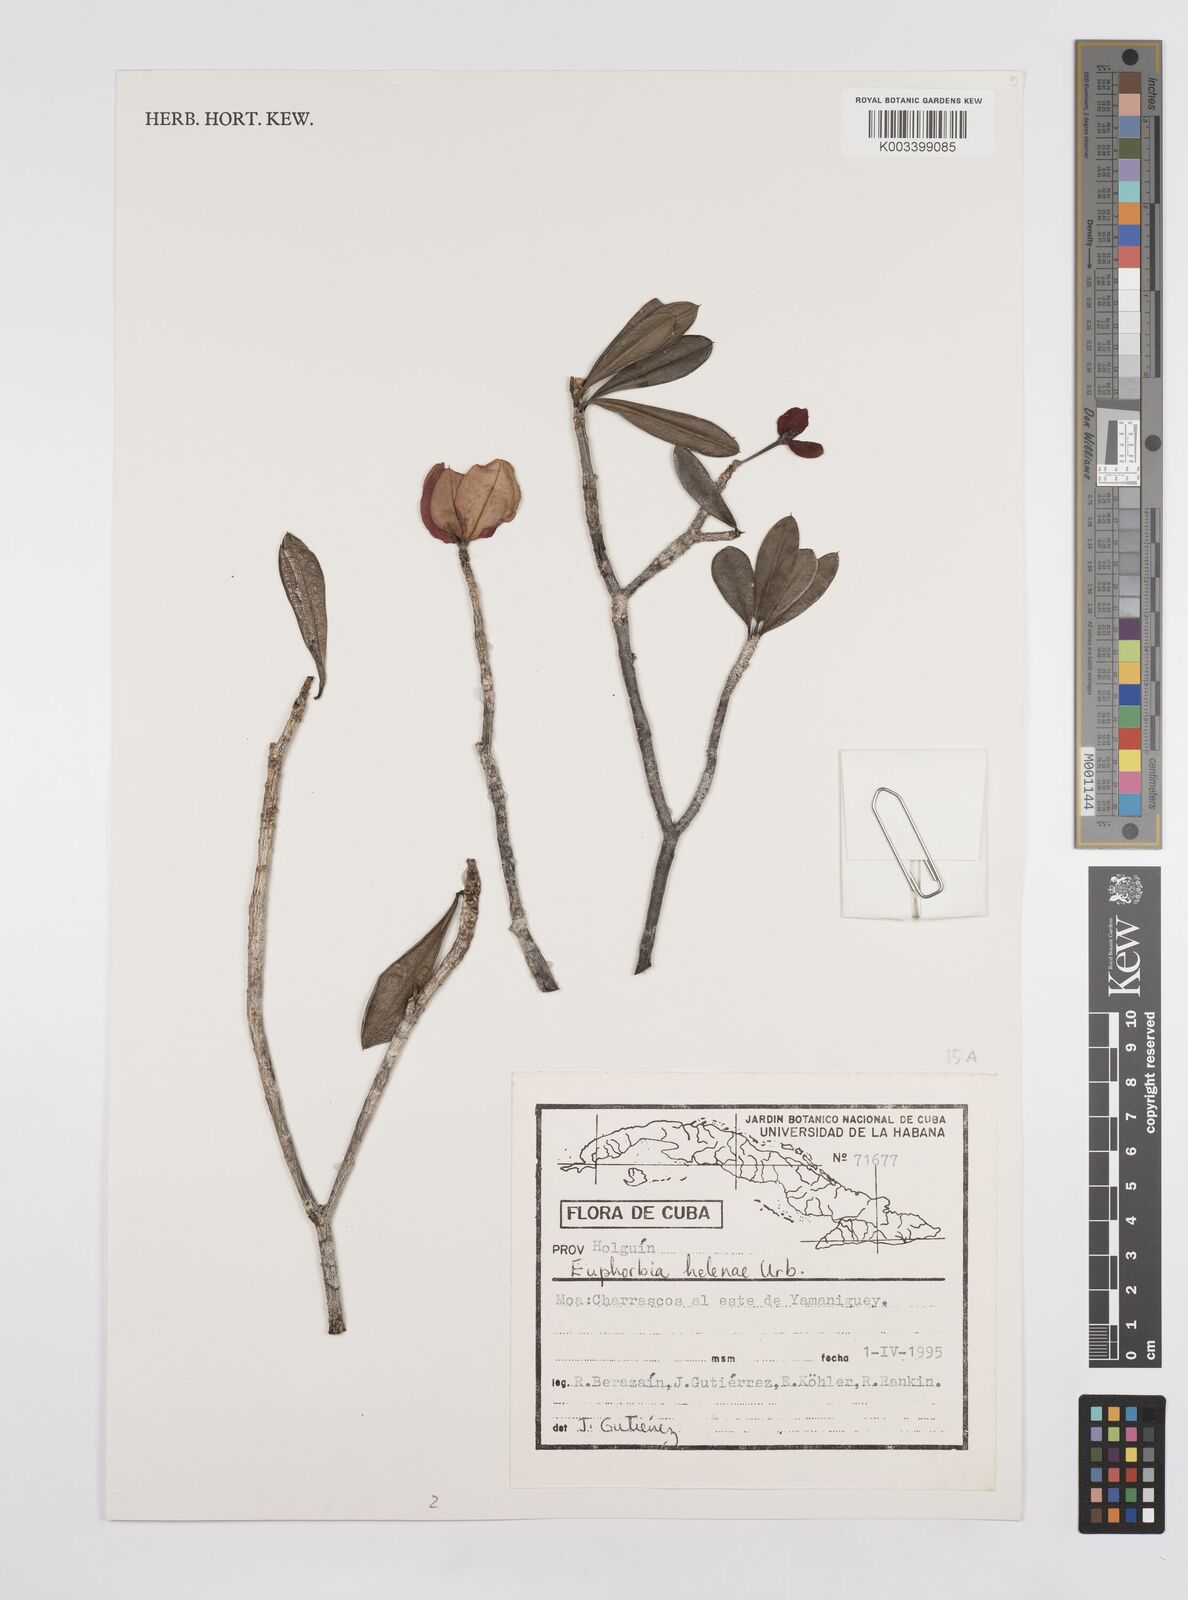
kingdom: Plantae
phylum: Tracheophyta
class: Magnoliopsida
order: Malpighiales
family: Euphorbiaceae
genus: Euphorbia
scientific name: Euphorbia helenae
